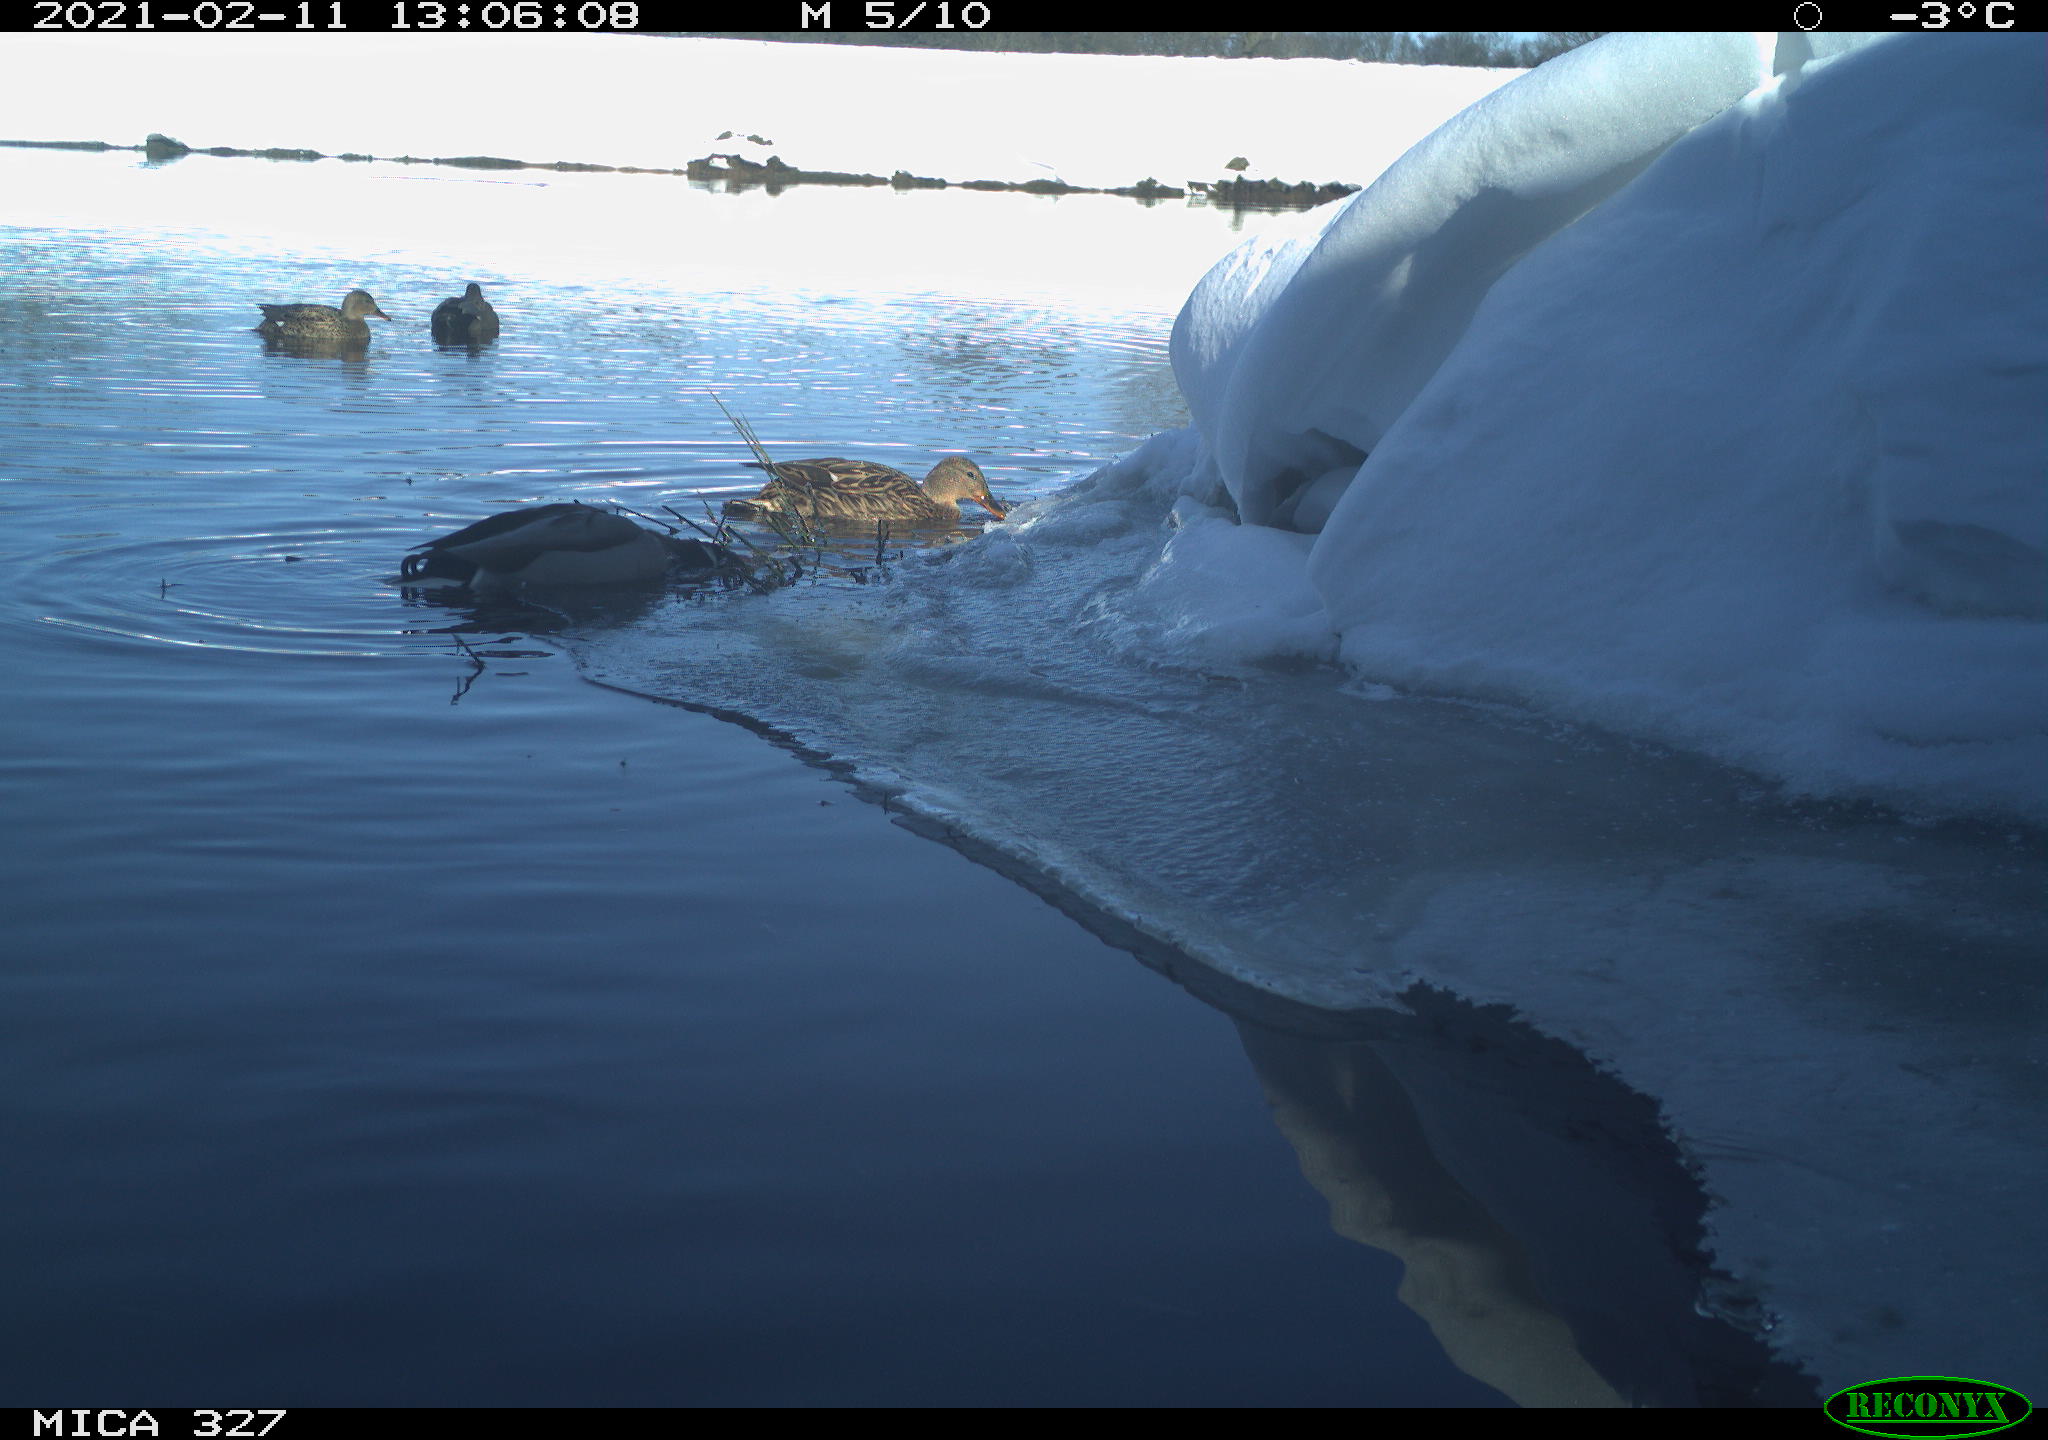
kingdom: Animalia
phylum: Chordata
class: Aves
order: Anseriformes
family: Anatidae
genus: Anas
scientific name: Anas
